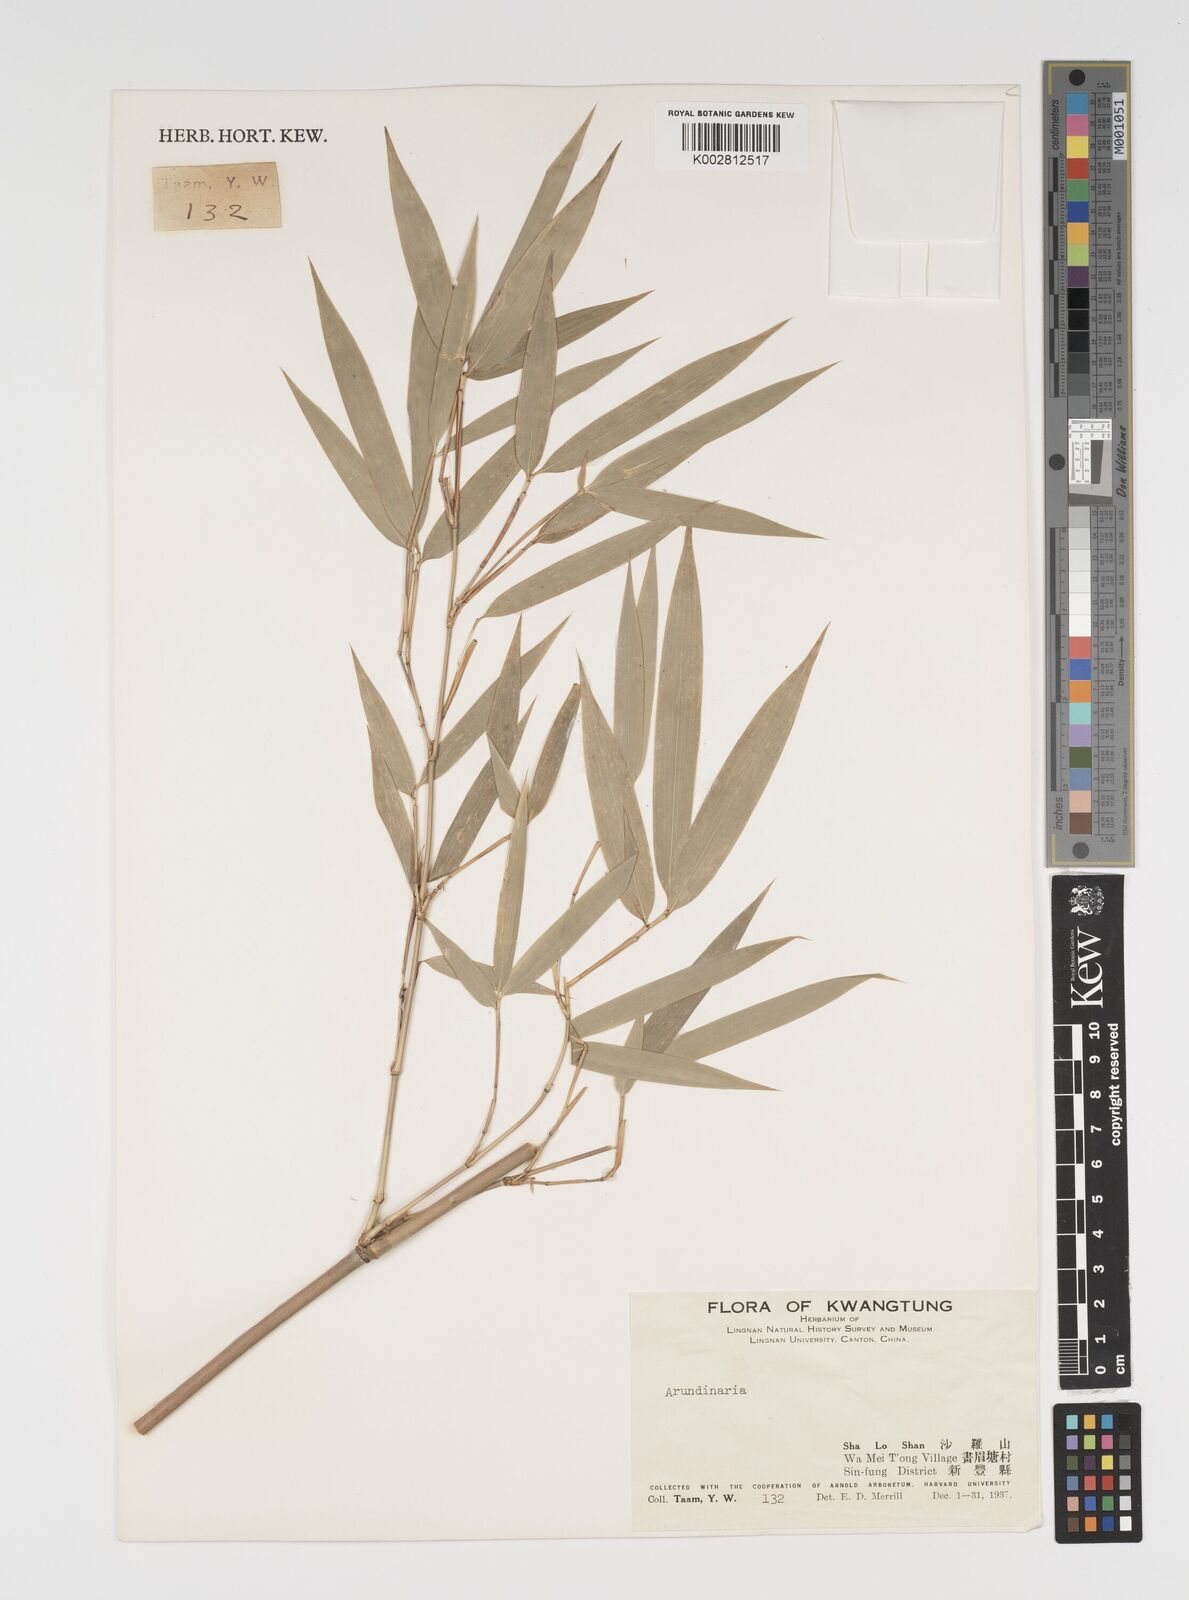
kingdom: Plantae
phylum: Tracheophyta
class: Liliopsida
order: Poales
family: Poaceae
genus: Arundinaria
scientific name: Arundinaria
